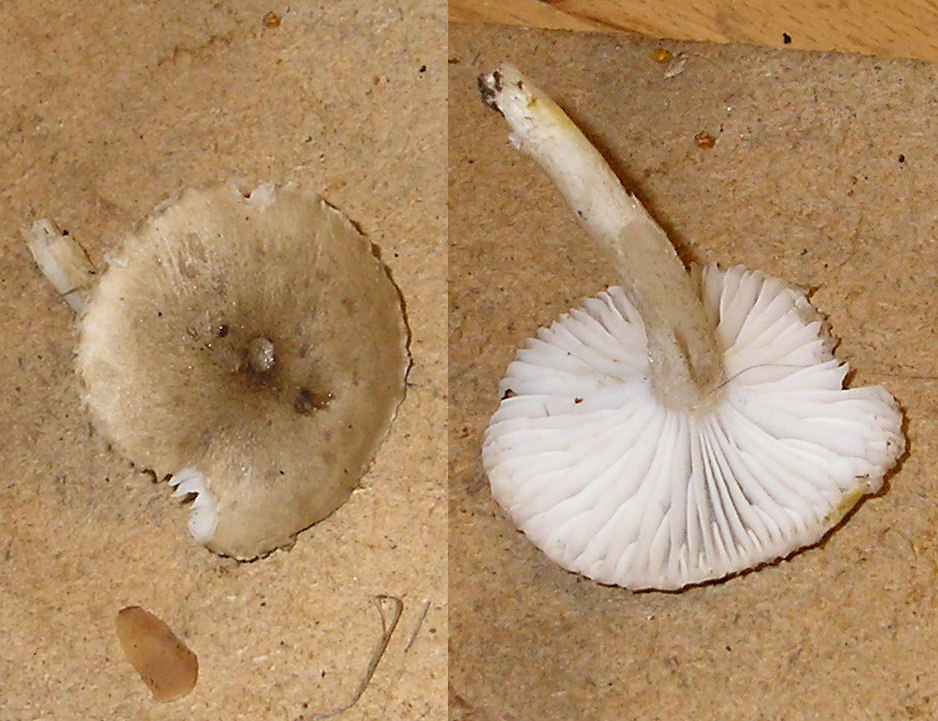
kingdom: Fungi
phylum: Basidiomycota
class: Agaricomycetes
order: Agaricales
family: Hygrophoraceae
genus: Hygrophorus
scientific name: Hygrophorus pustulatus
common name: mørkprikket sneglehat
